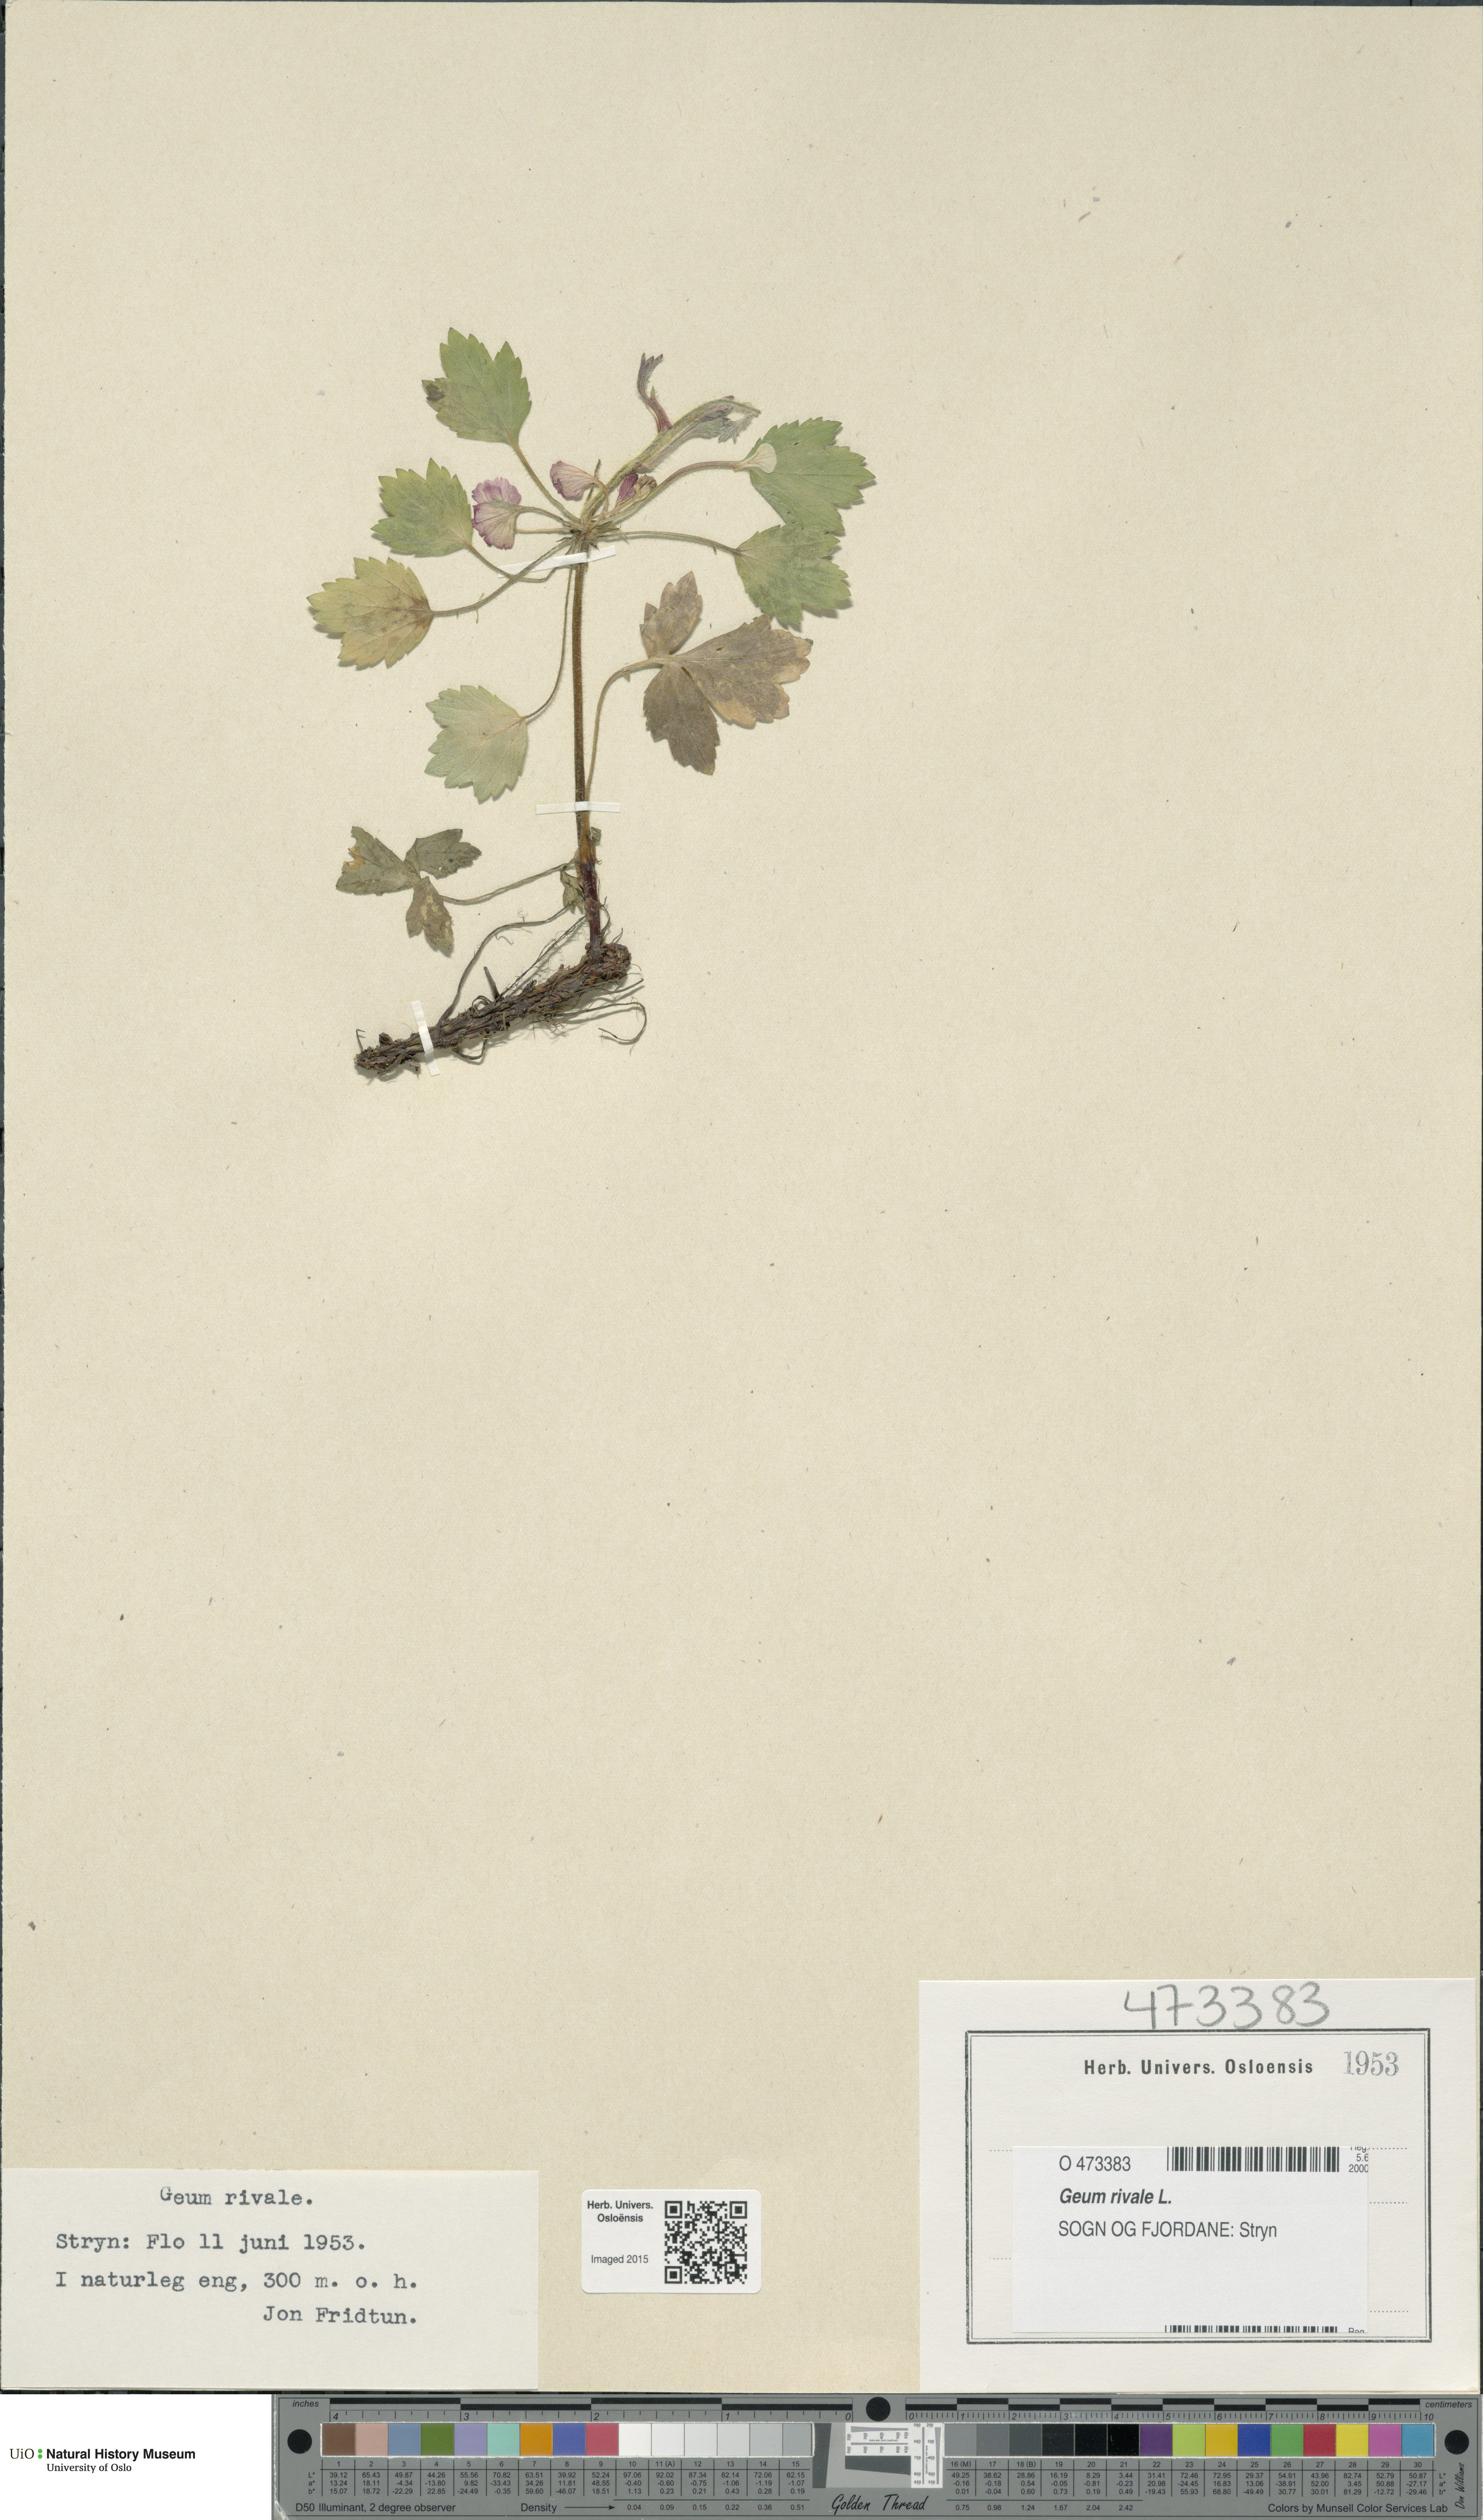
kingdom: Plantae
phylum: Tracheophyta
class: Magnoliopsida
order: Rosales
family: Rosaceae
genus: Geum
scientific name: Geum rivale
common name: Water avens
